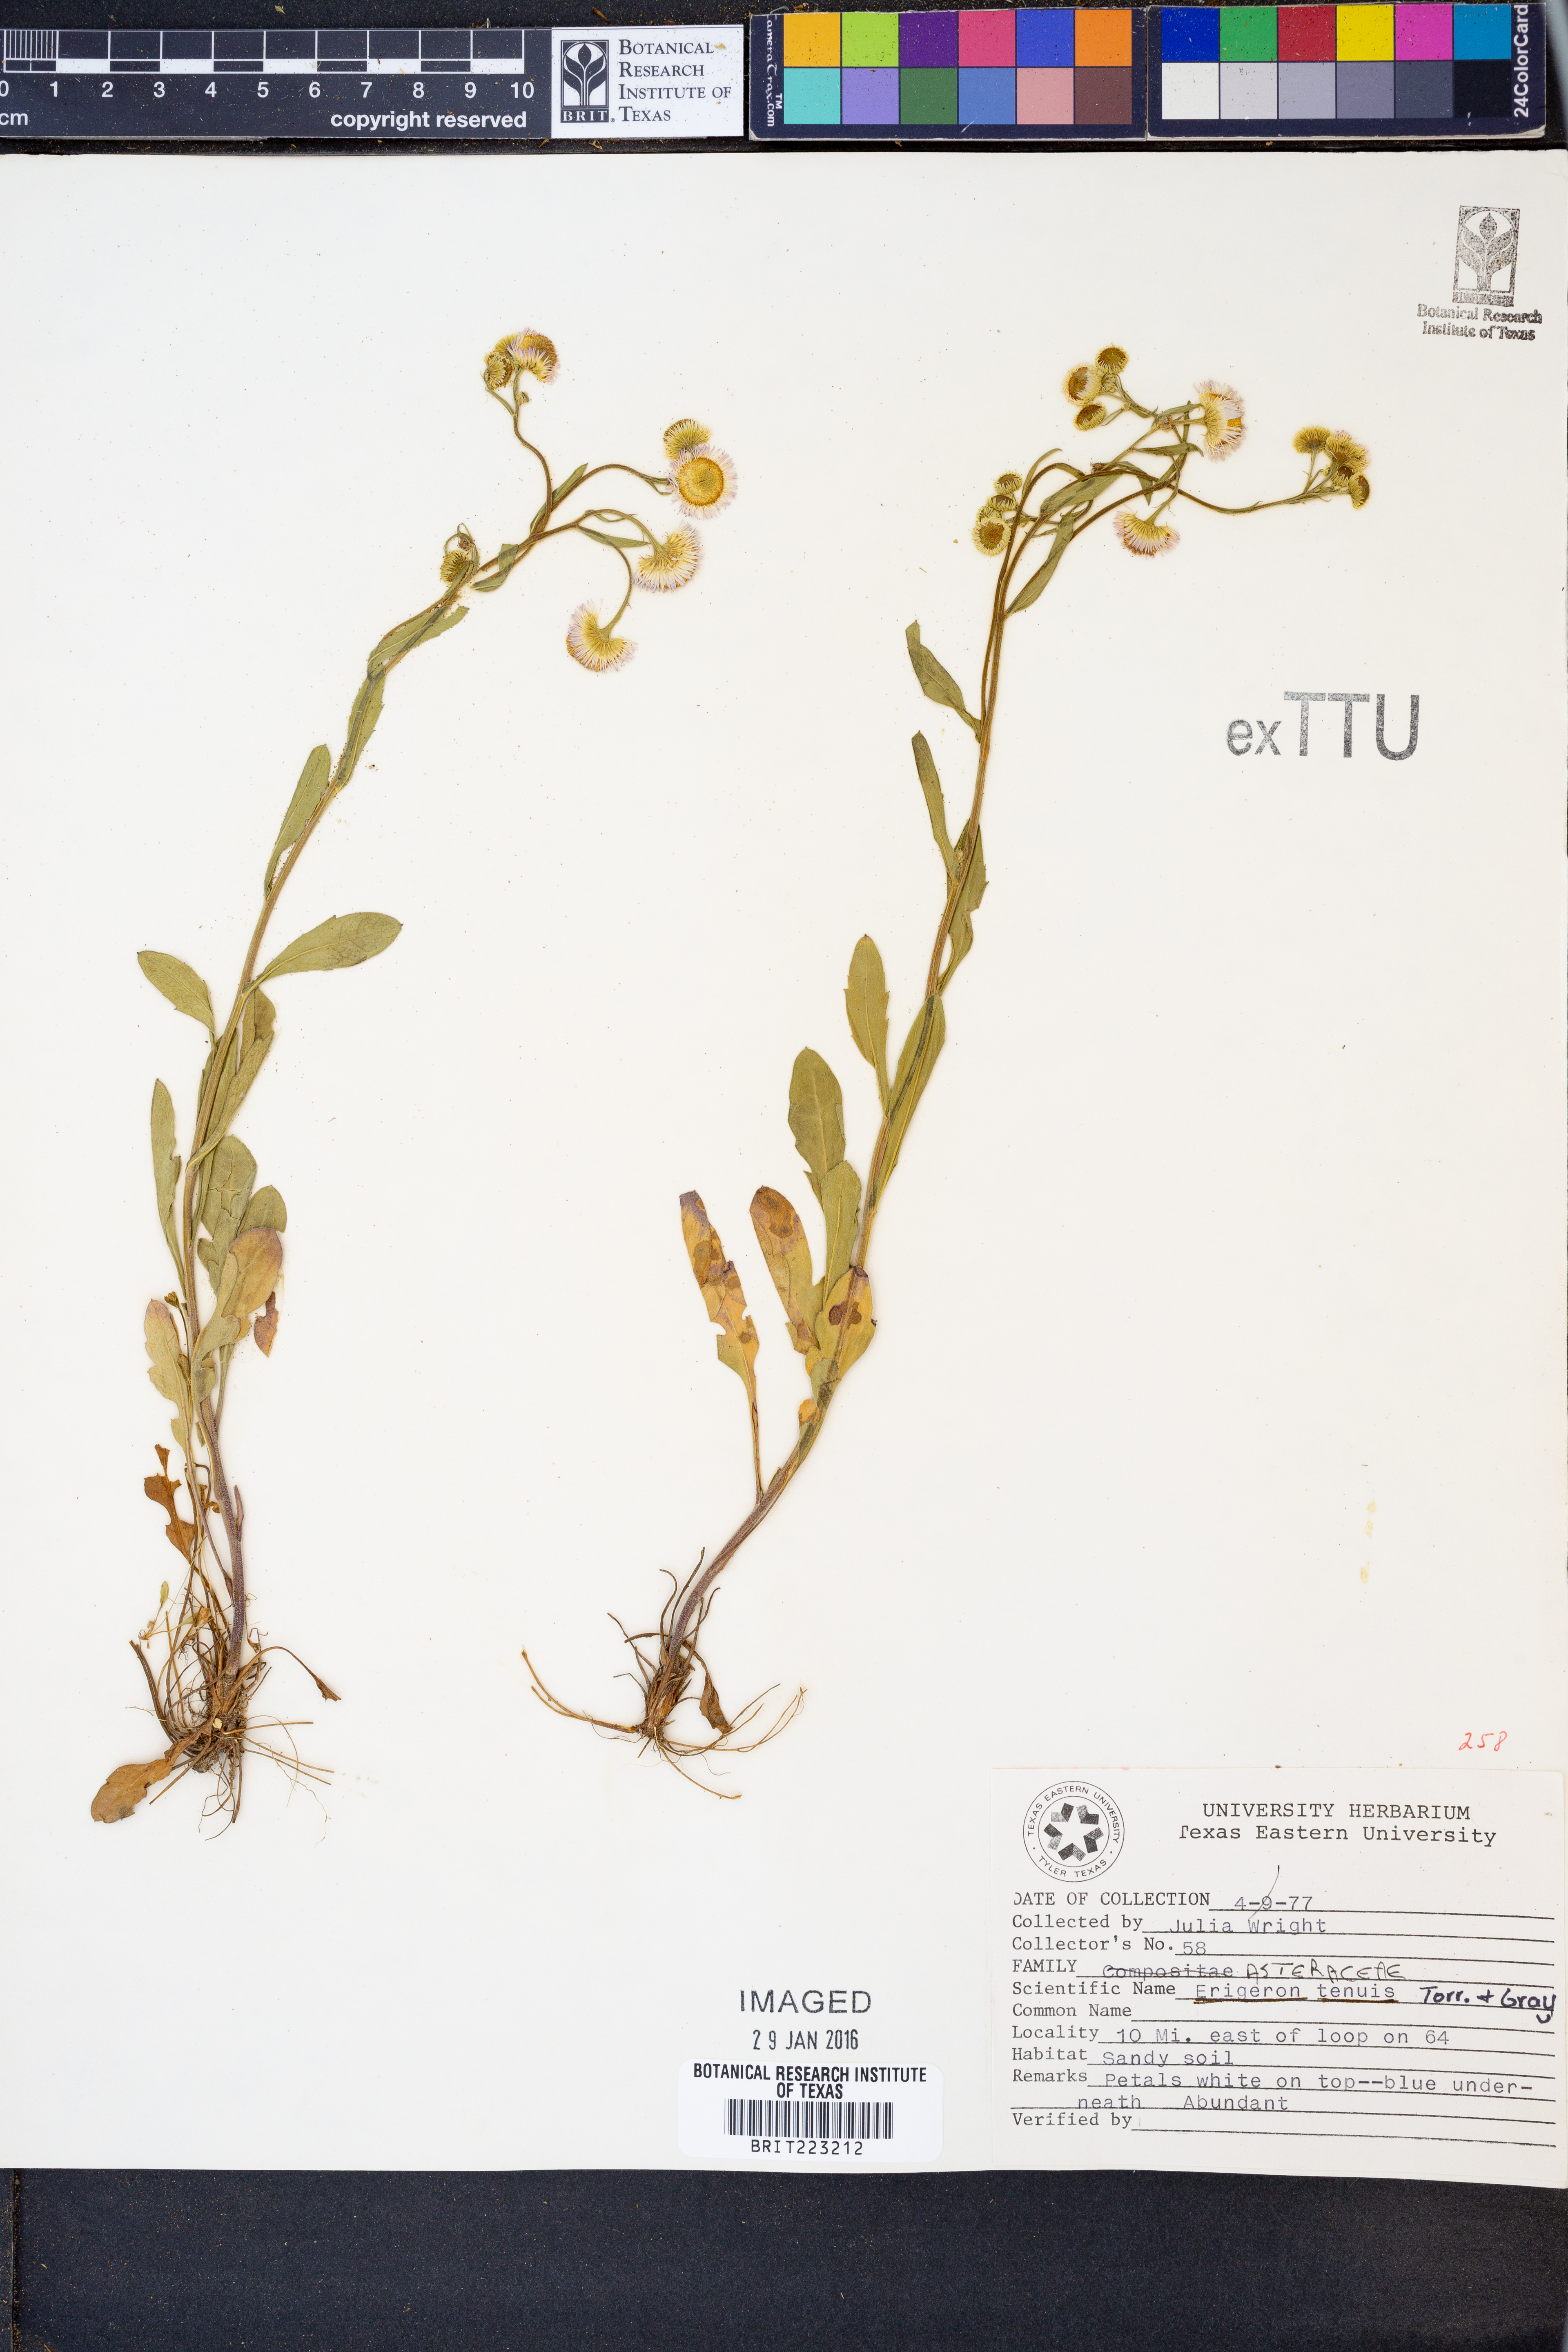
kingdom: Plantae
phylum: Tracheophyta
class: Magnoliopsida
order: Asterales
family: Asteraceae
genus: Erigeron
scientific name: Erigeron tenuis
